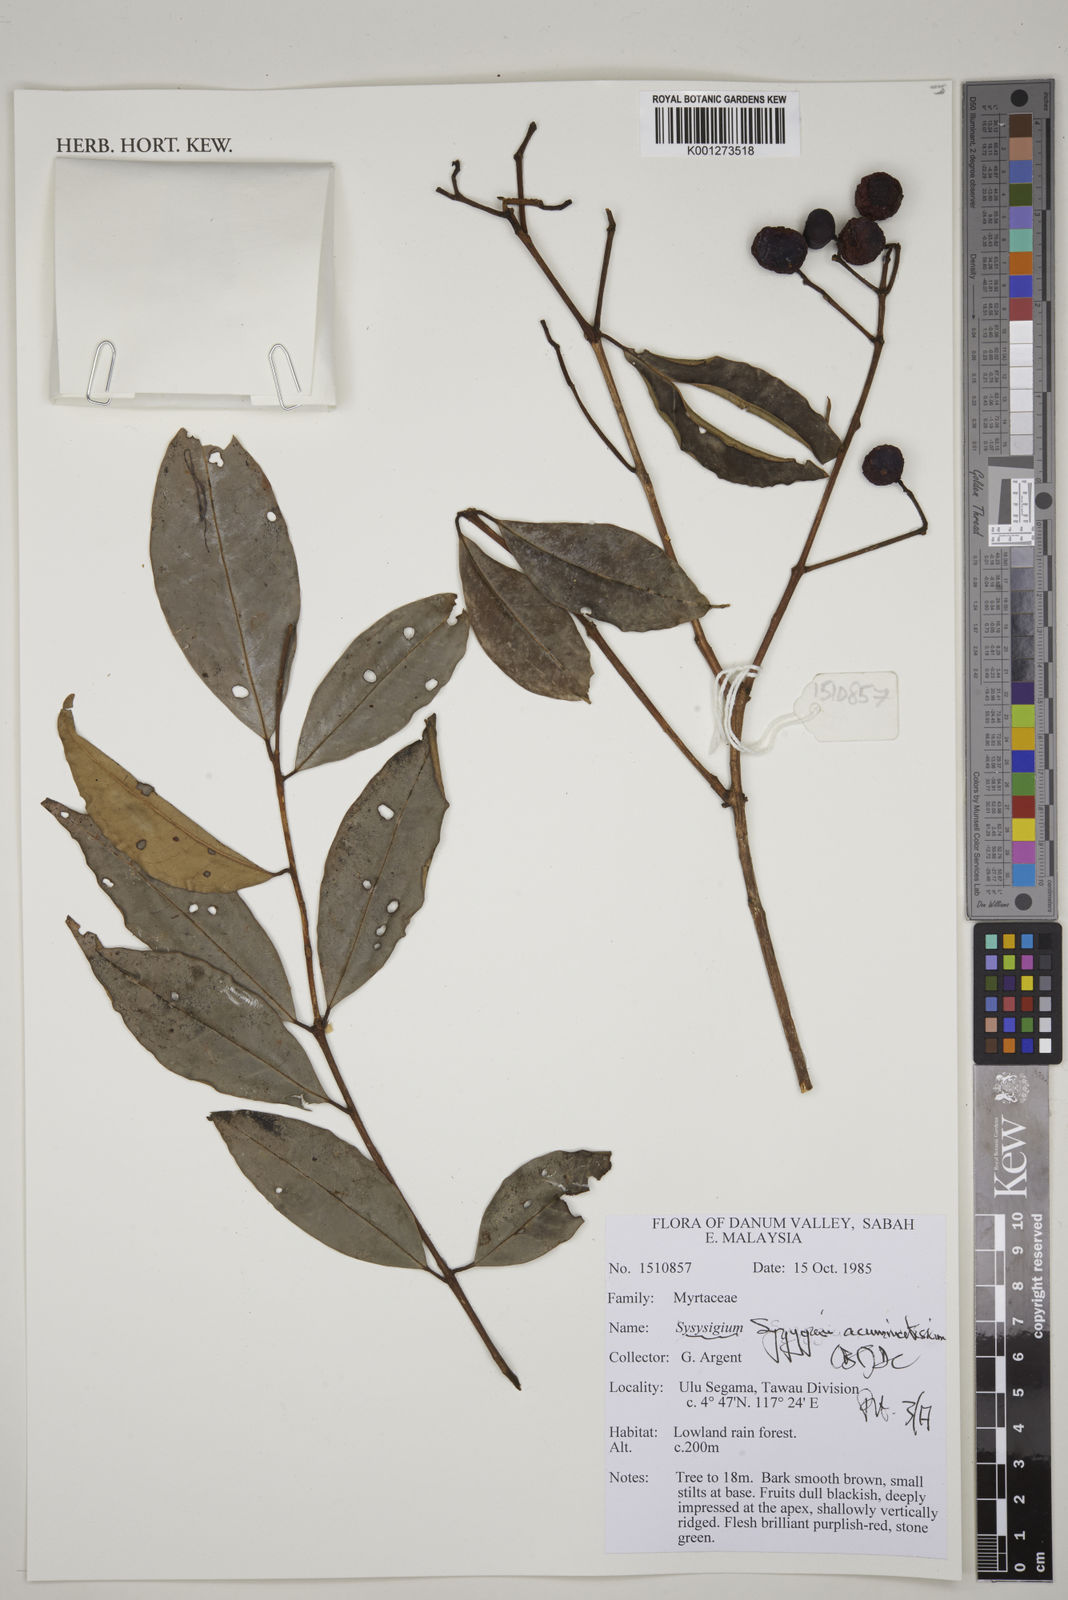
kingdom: Plantae
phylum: Tracheophyta
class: Magnoliopsida
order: Myrtales
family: Myrtaceae
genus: Syzygium
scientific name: Syzygium acuminatissimum
